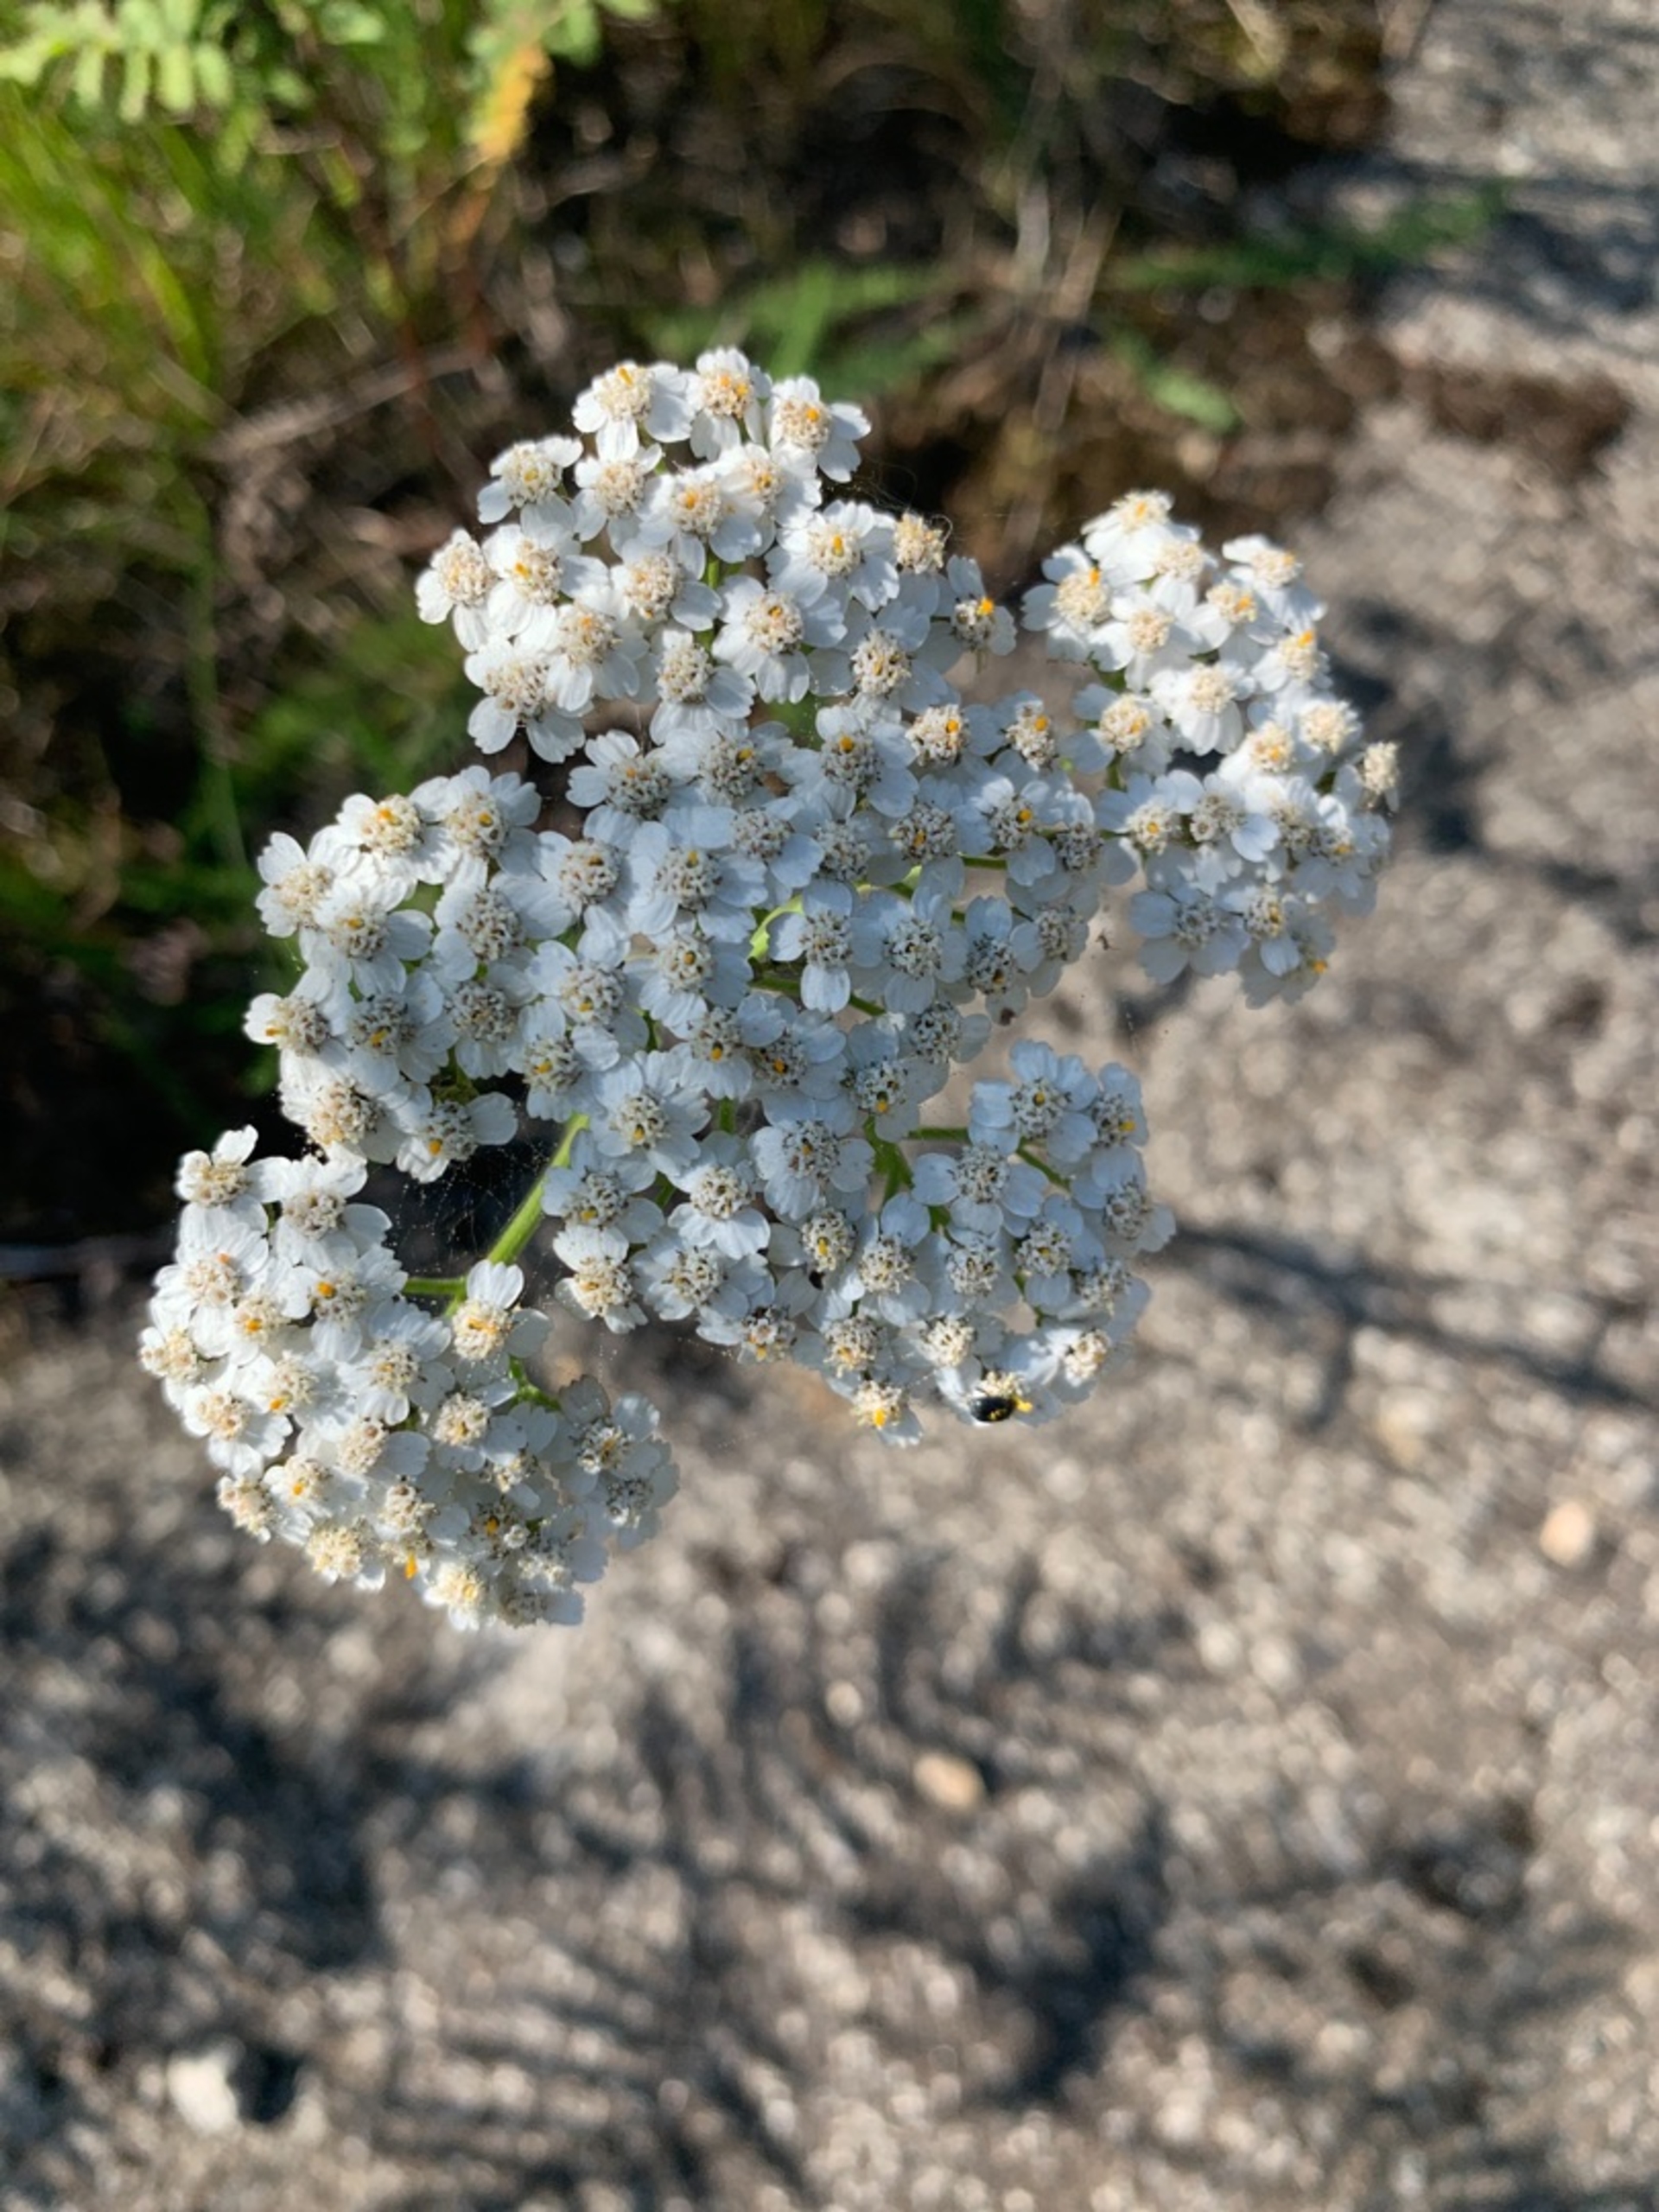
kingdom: Plantae
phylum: Tracheophyta
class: Magnoliopsida
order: Asterales
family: Asteraceae
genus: Achillea
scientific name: Achillea millefolium
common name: Almindelig røllike
